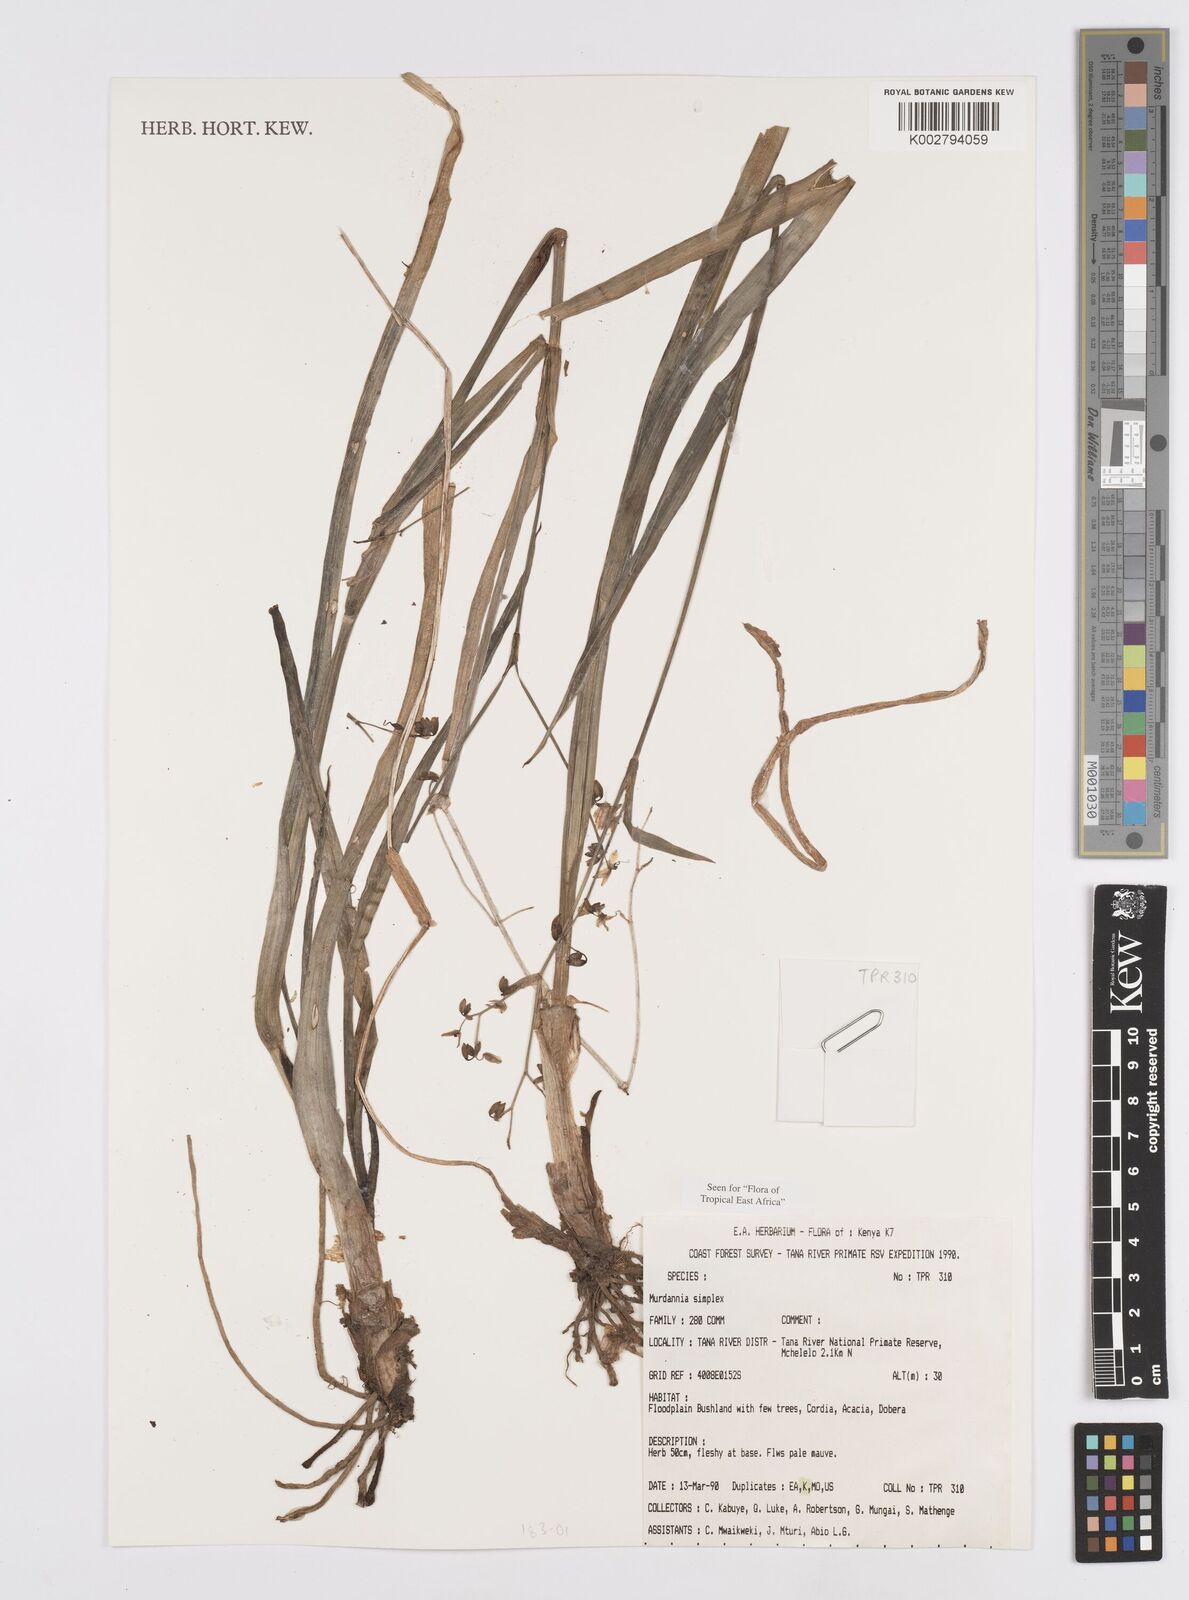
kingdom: Plantae
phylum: Tracheophyta
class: Liliopsida
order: Commelinales
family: Commelinaceae
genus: Murdannia
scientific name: Murdannia simplex
